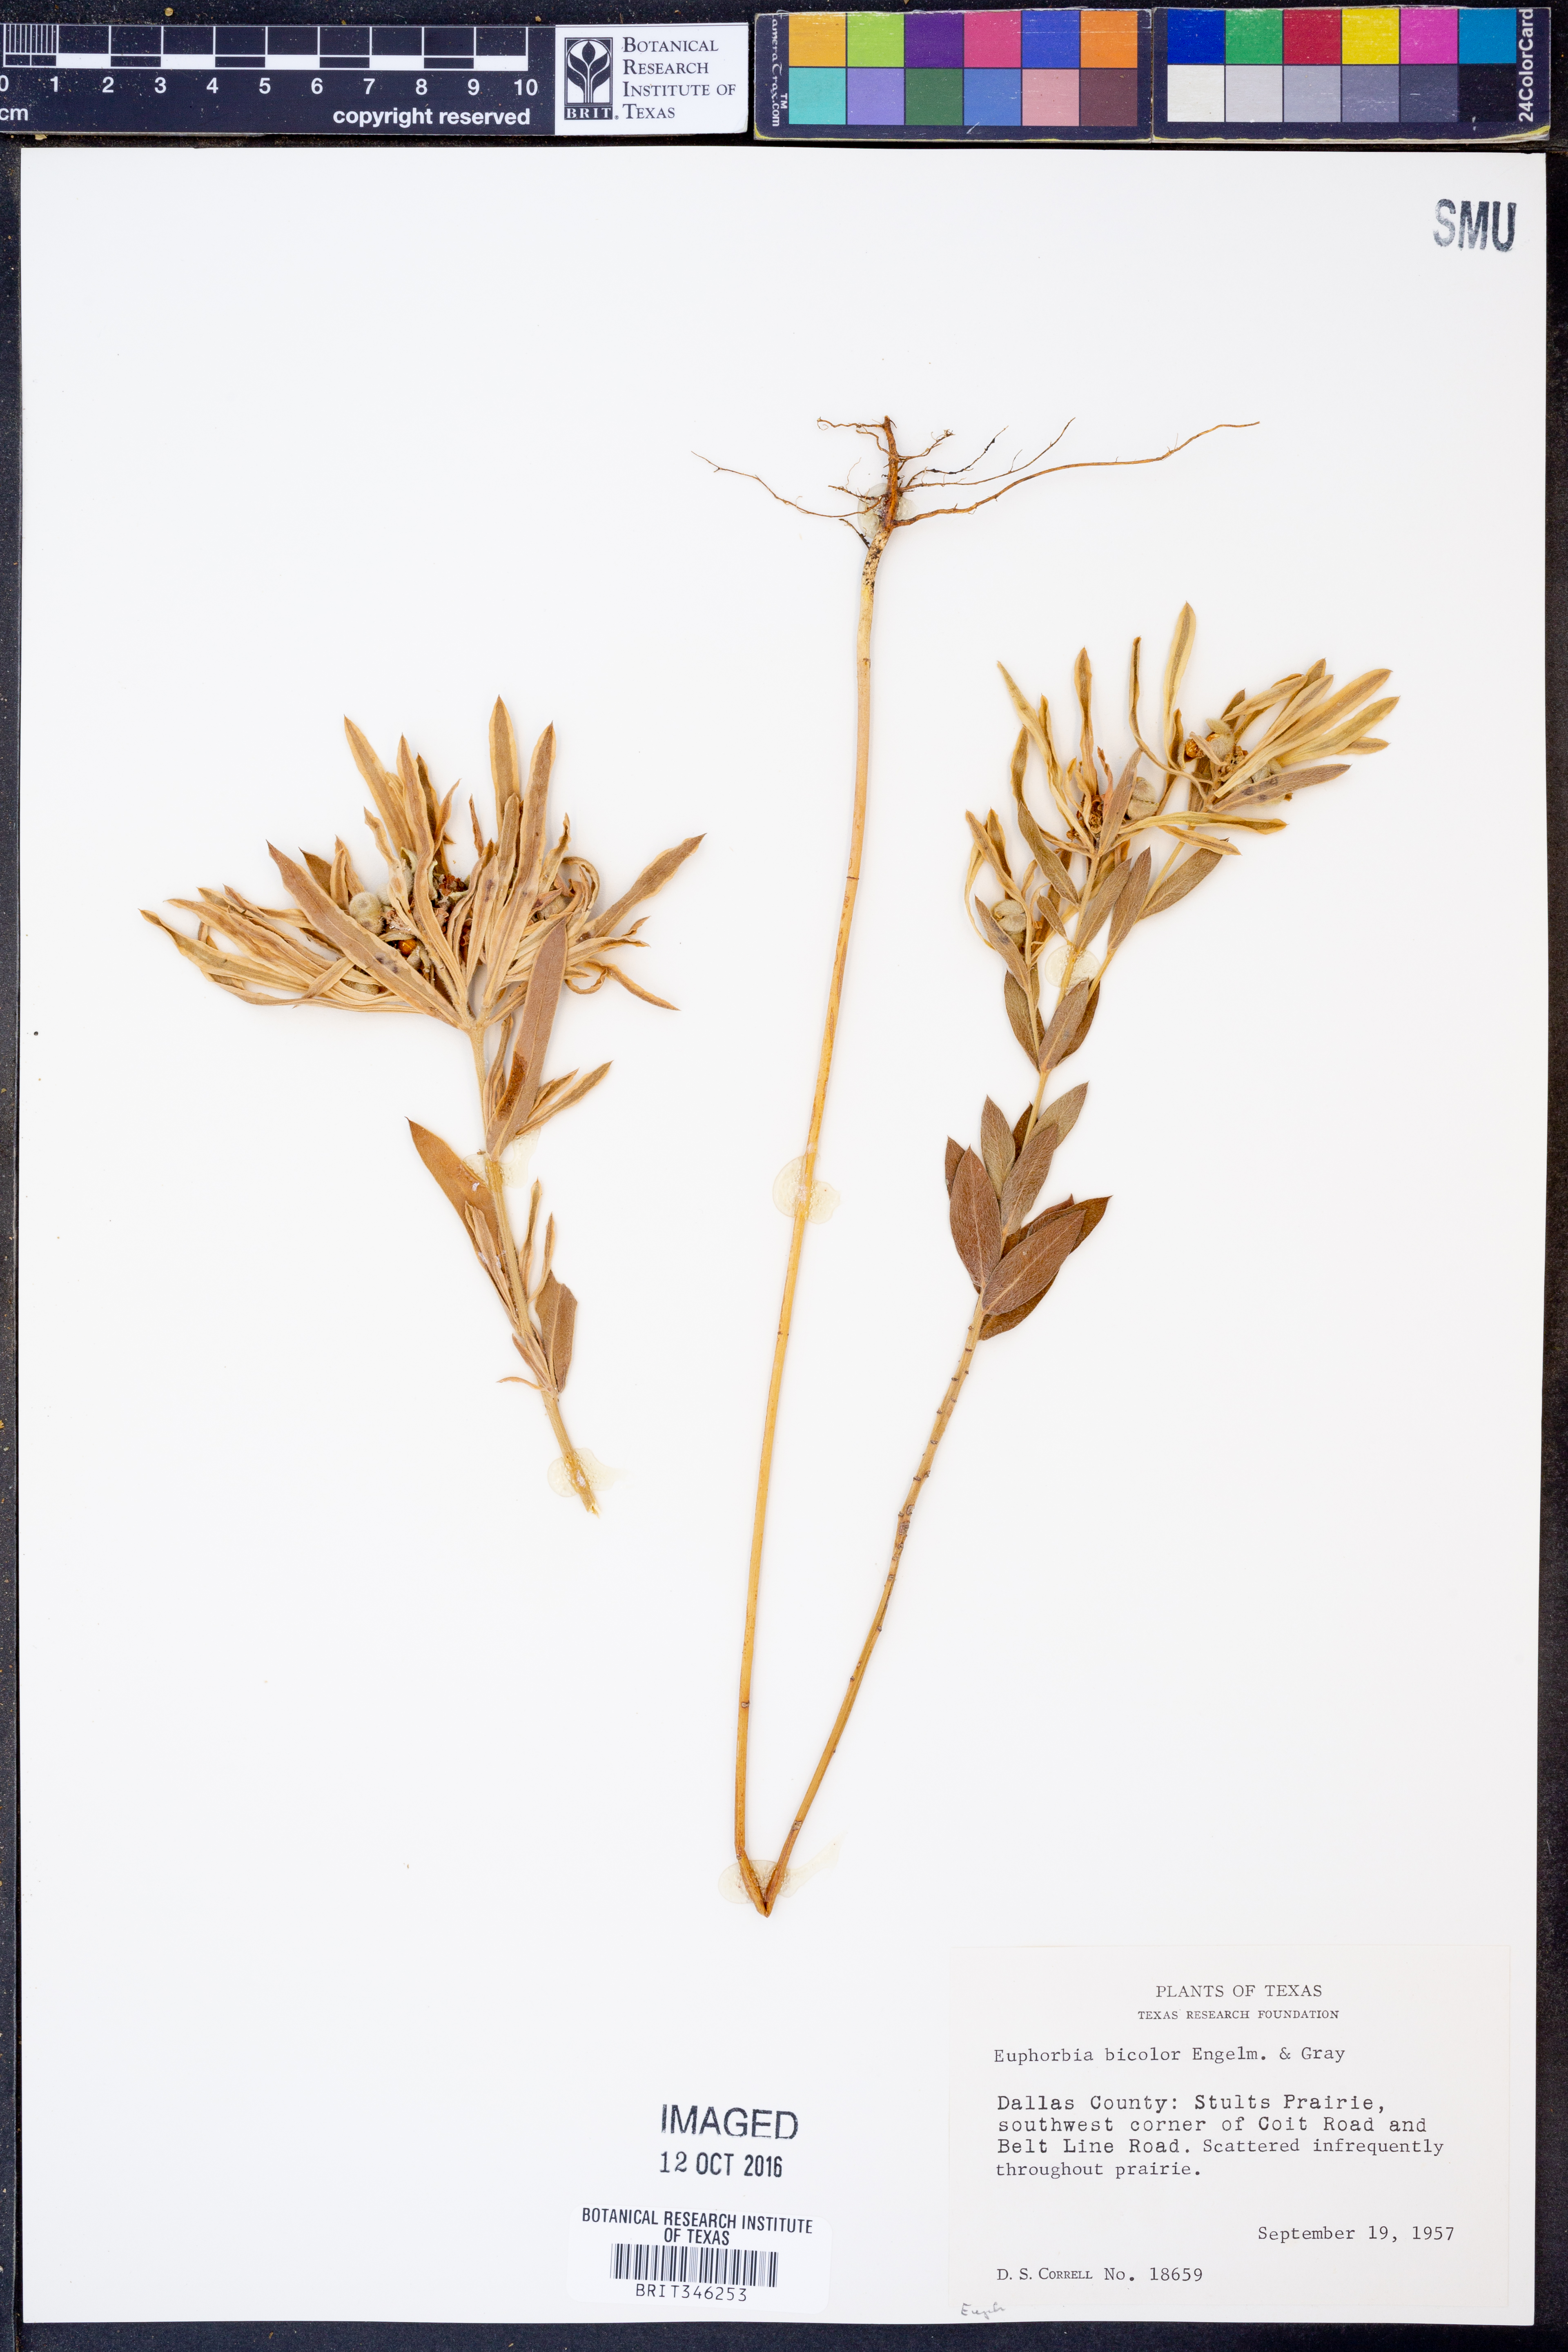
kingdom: Plantae
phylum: Tracheophyta
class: Magnoliopsida
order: Malpighiales
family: Euphorbiaceae
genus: Euphorbia
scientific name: Euphorbia bicolor
